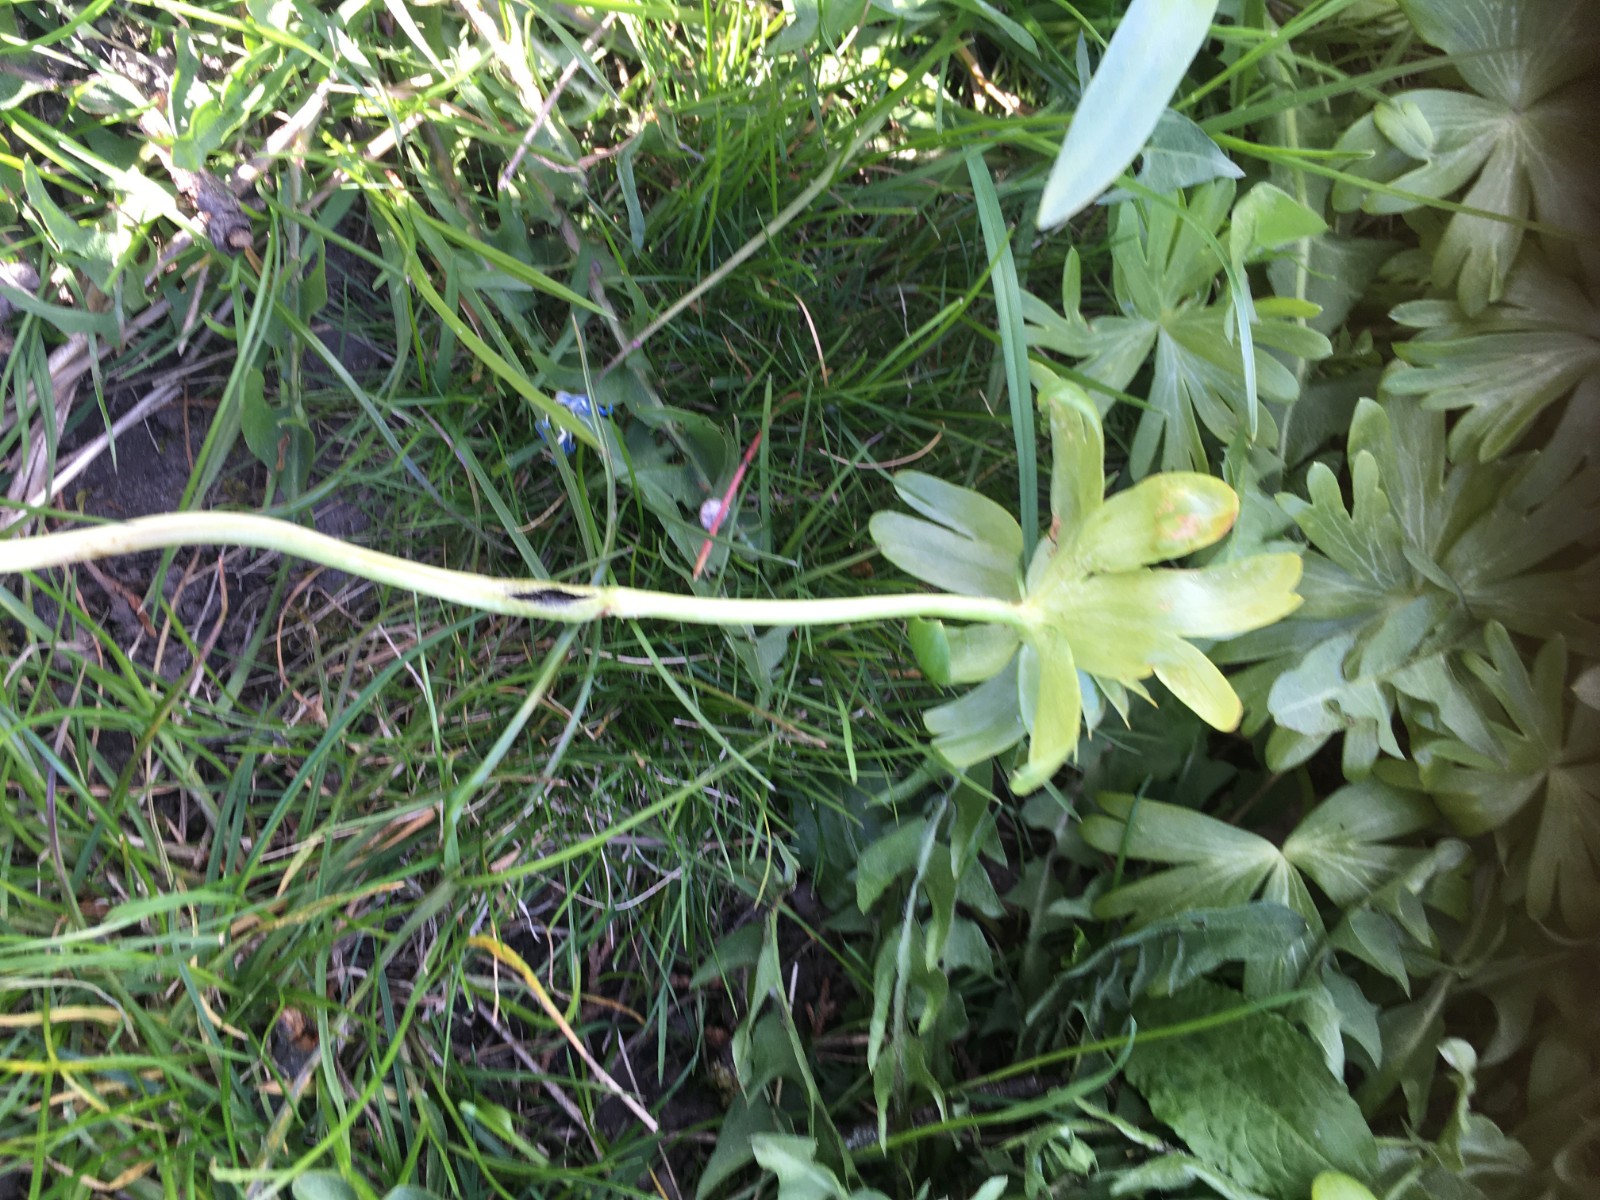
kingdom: Fungi
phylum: Basidiomycota
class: Ustilaginomycetes
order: Urocystidales
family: Urocystidaceae
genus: Urocystis
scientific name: Urocystis eranthidis
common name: erantis-brand
